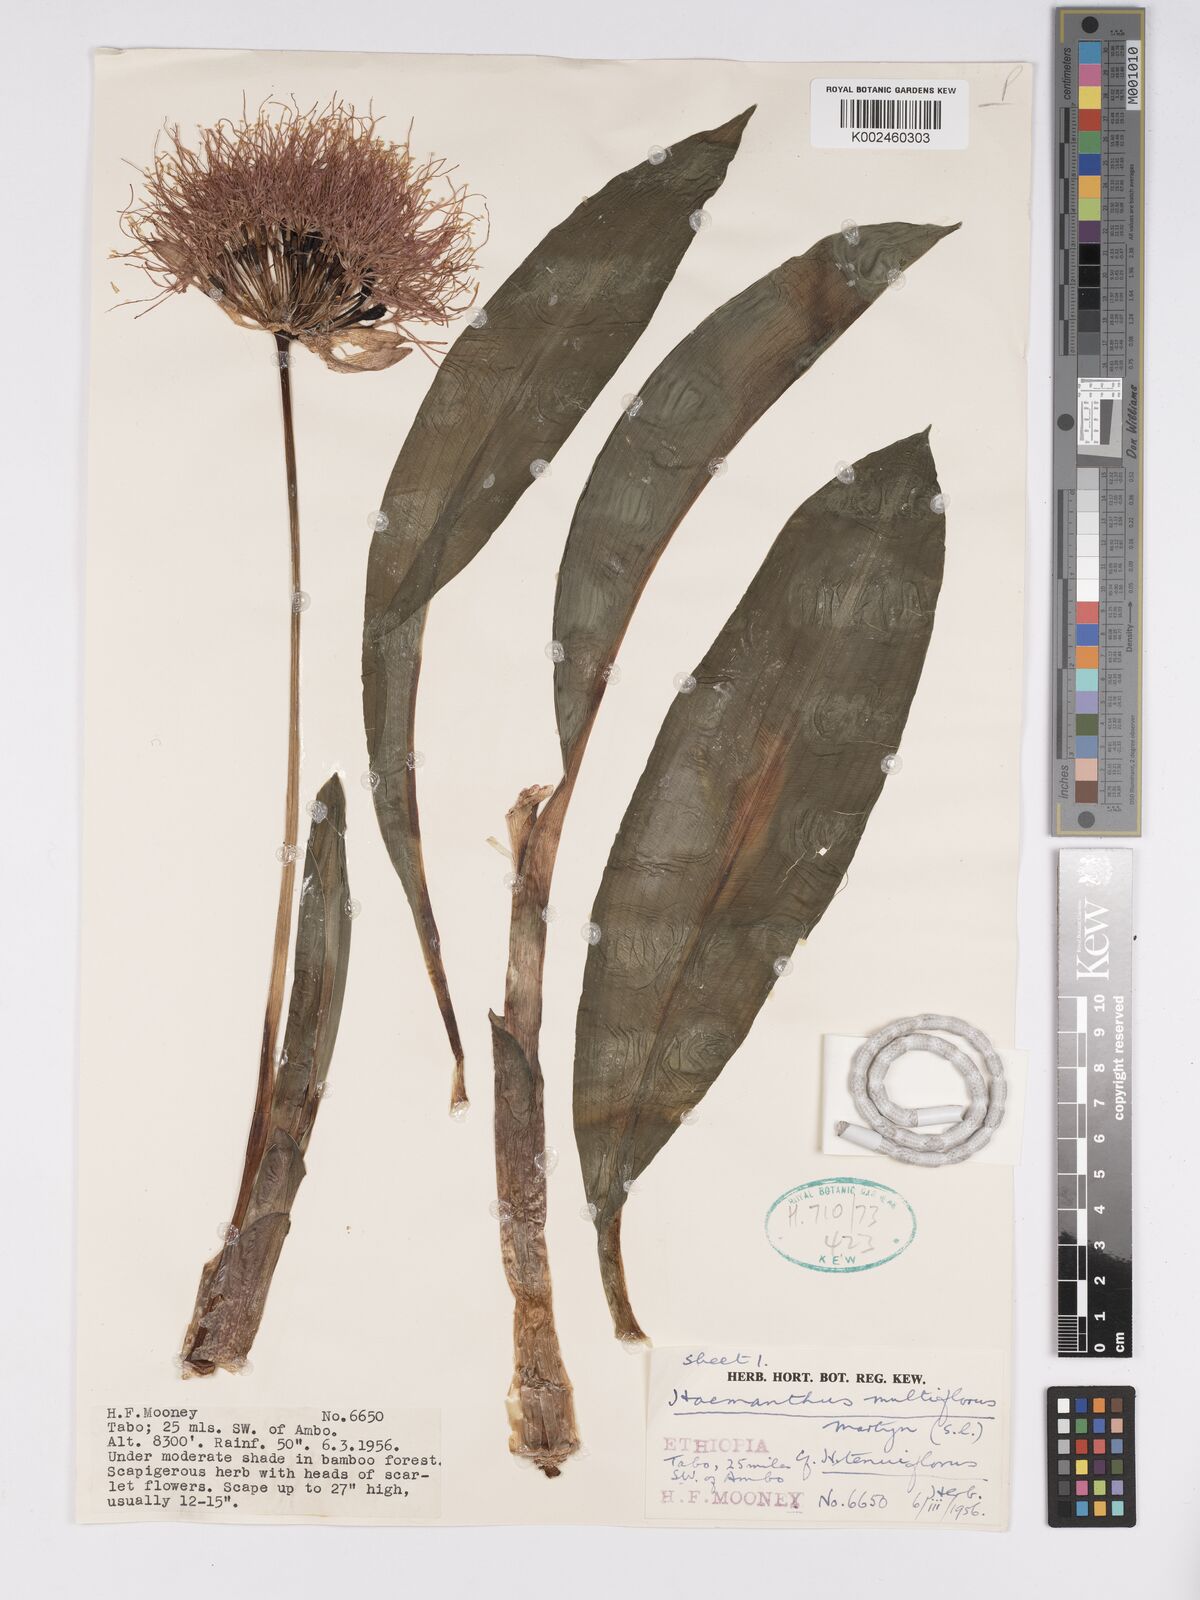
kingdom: Plantae
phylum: Tracheophyta
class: Liliopsida
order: Asparagales
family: Amaryllidaceae
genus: Scadoxus
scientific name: Scadoxus multiflorus
